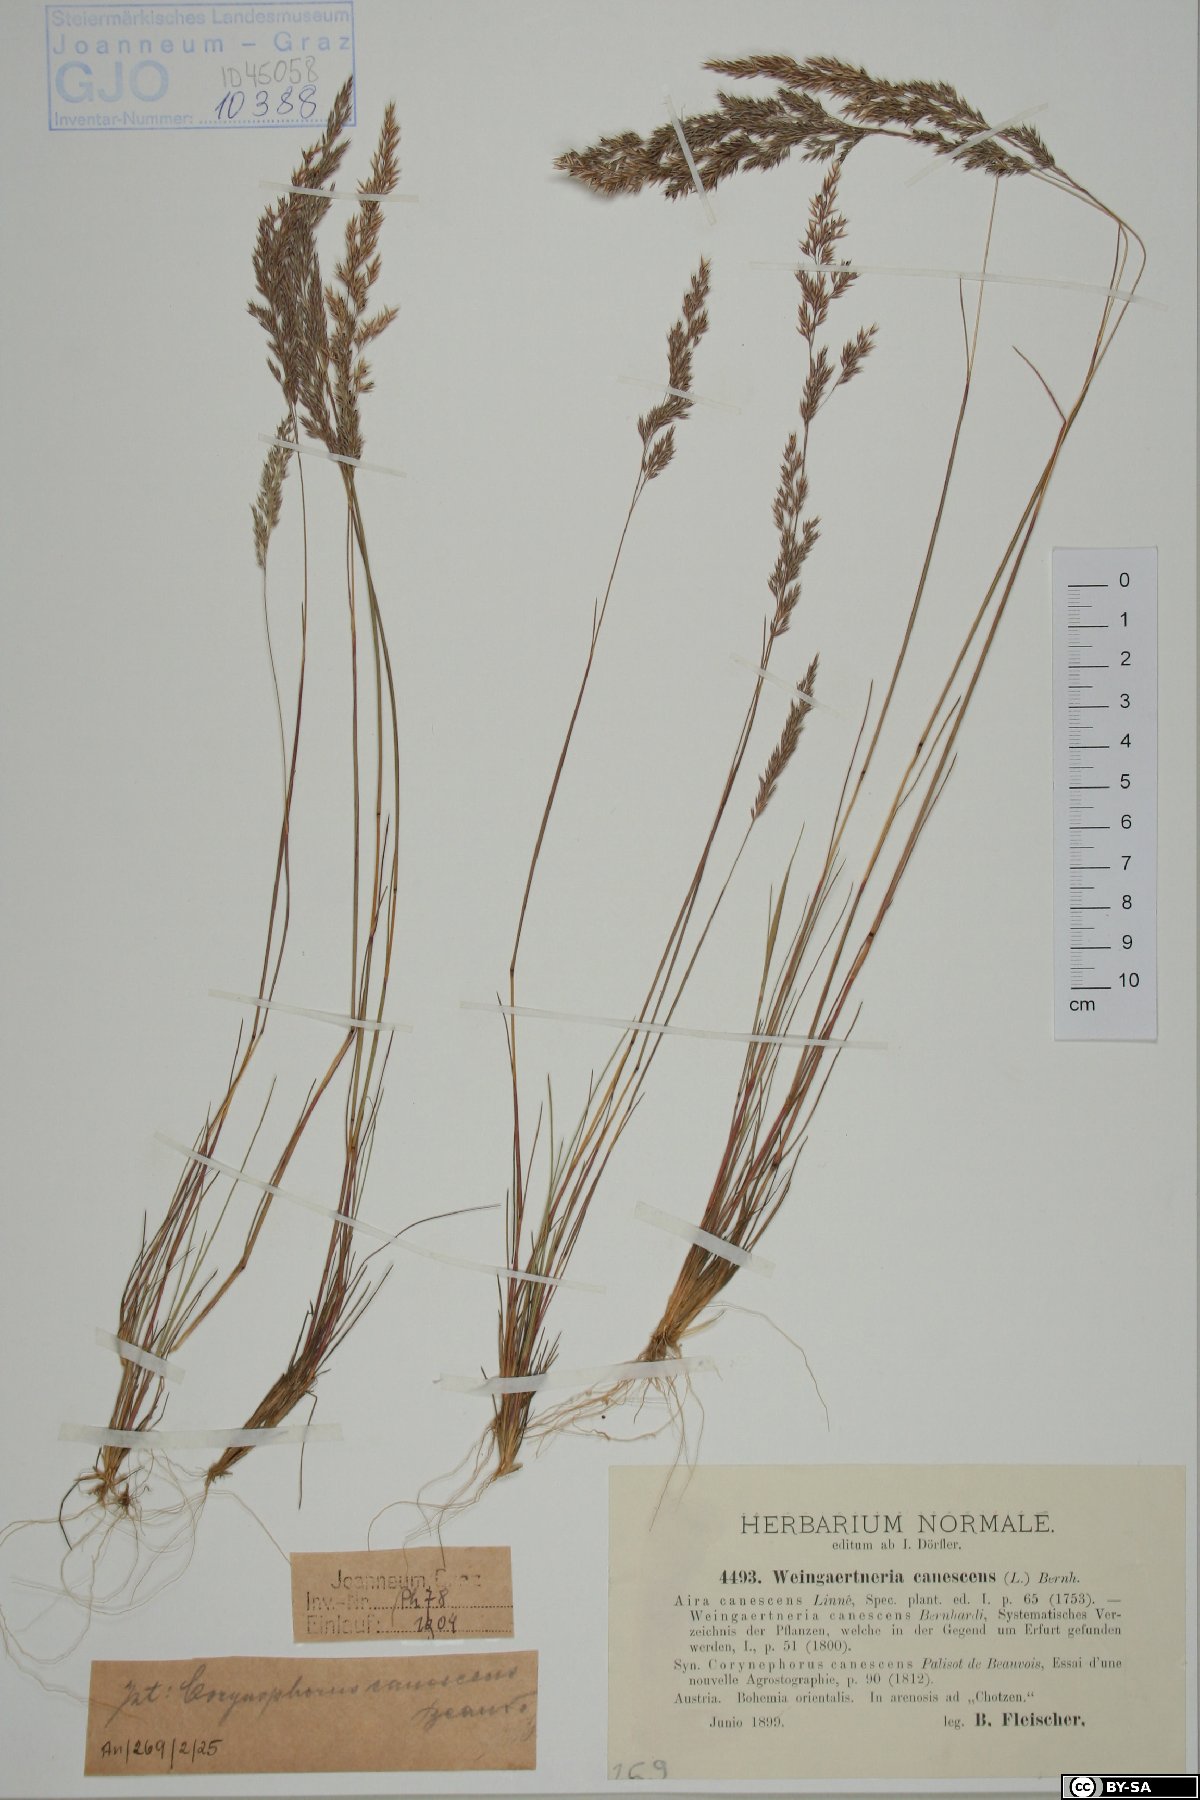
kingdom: Plantae
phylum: Tracheophyta
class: Liliopsida
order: Poales
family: Poaceae
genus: Corynephorus
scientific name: Corynephorus canescens
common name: Grey hair-grass
